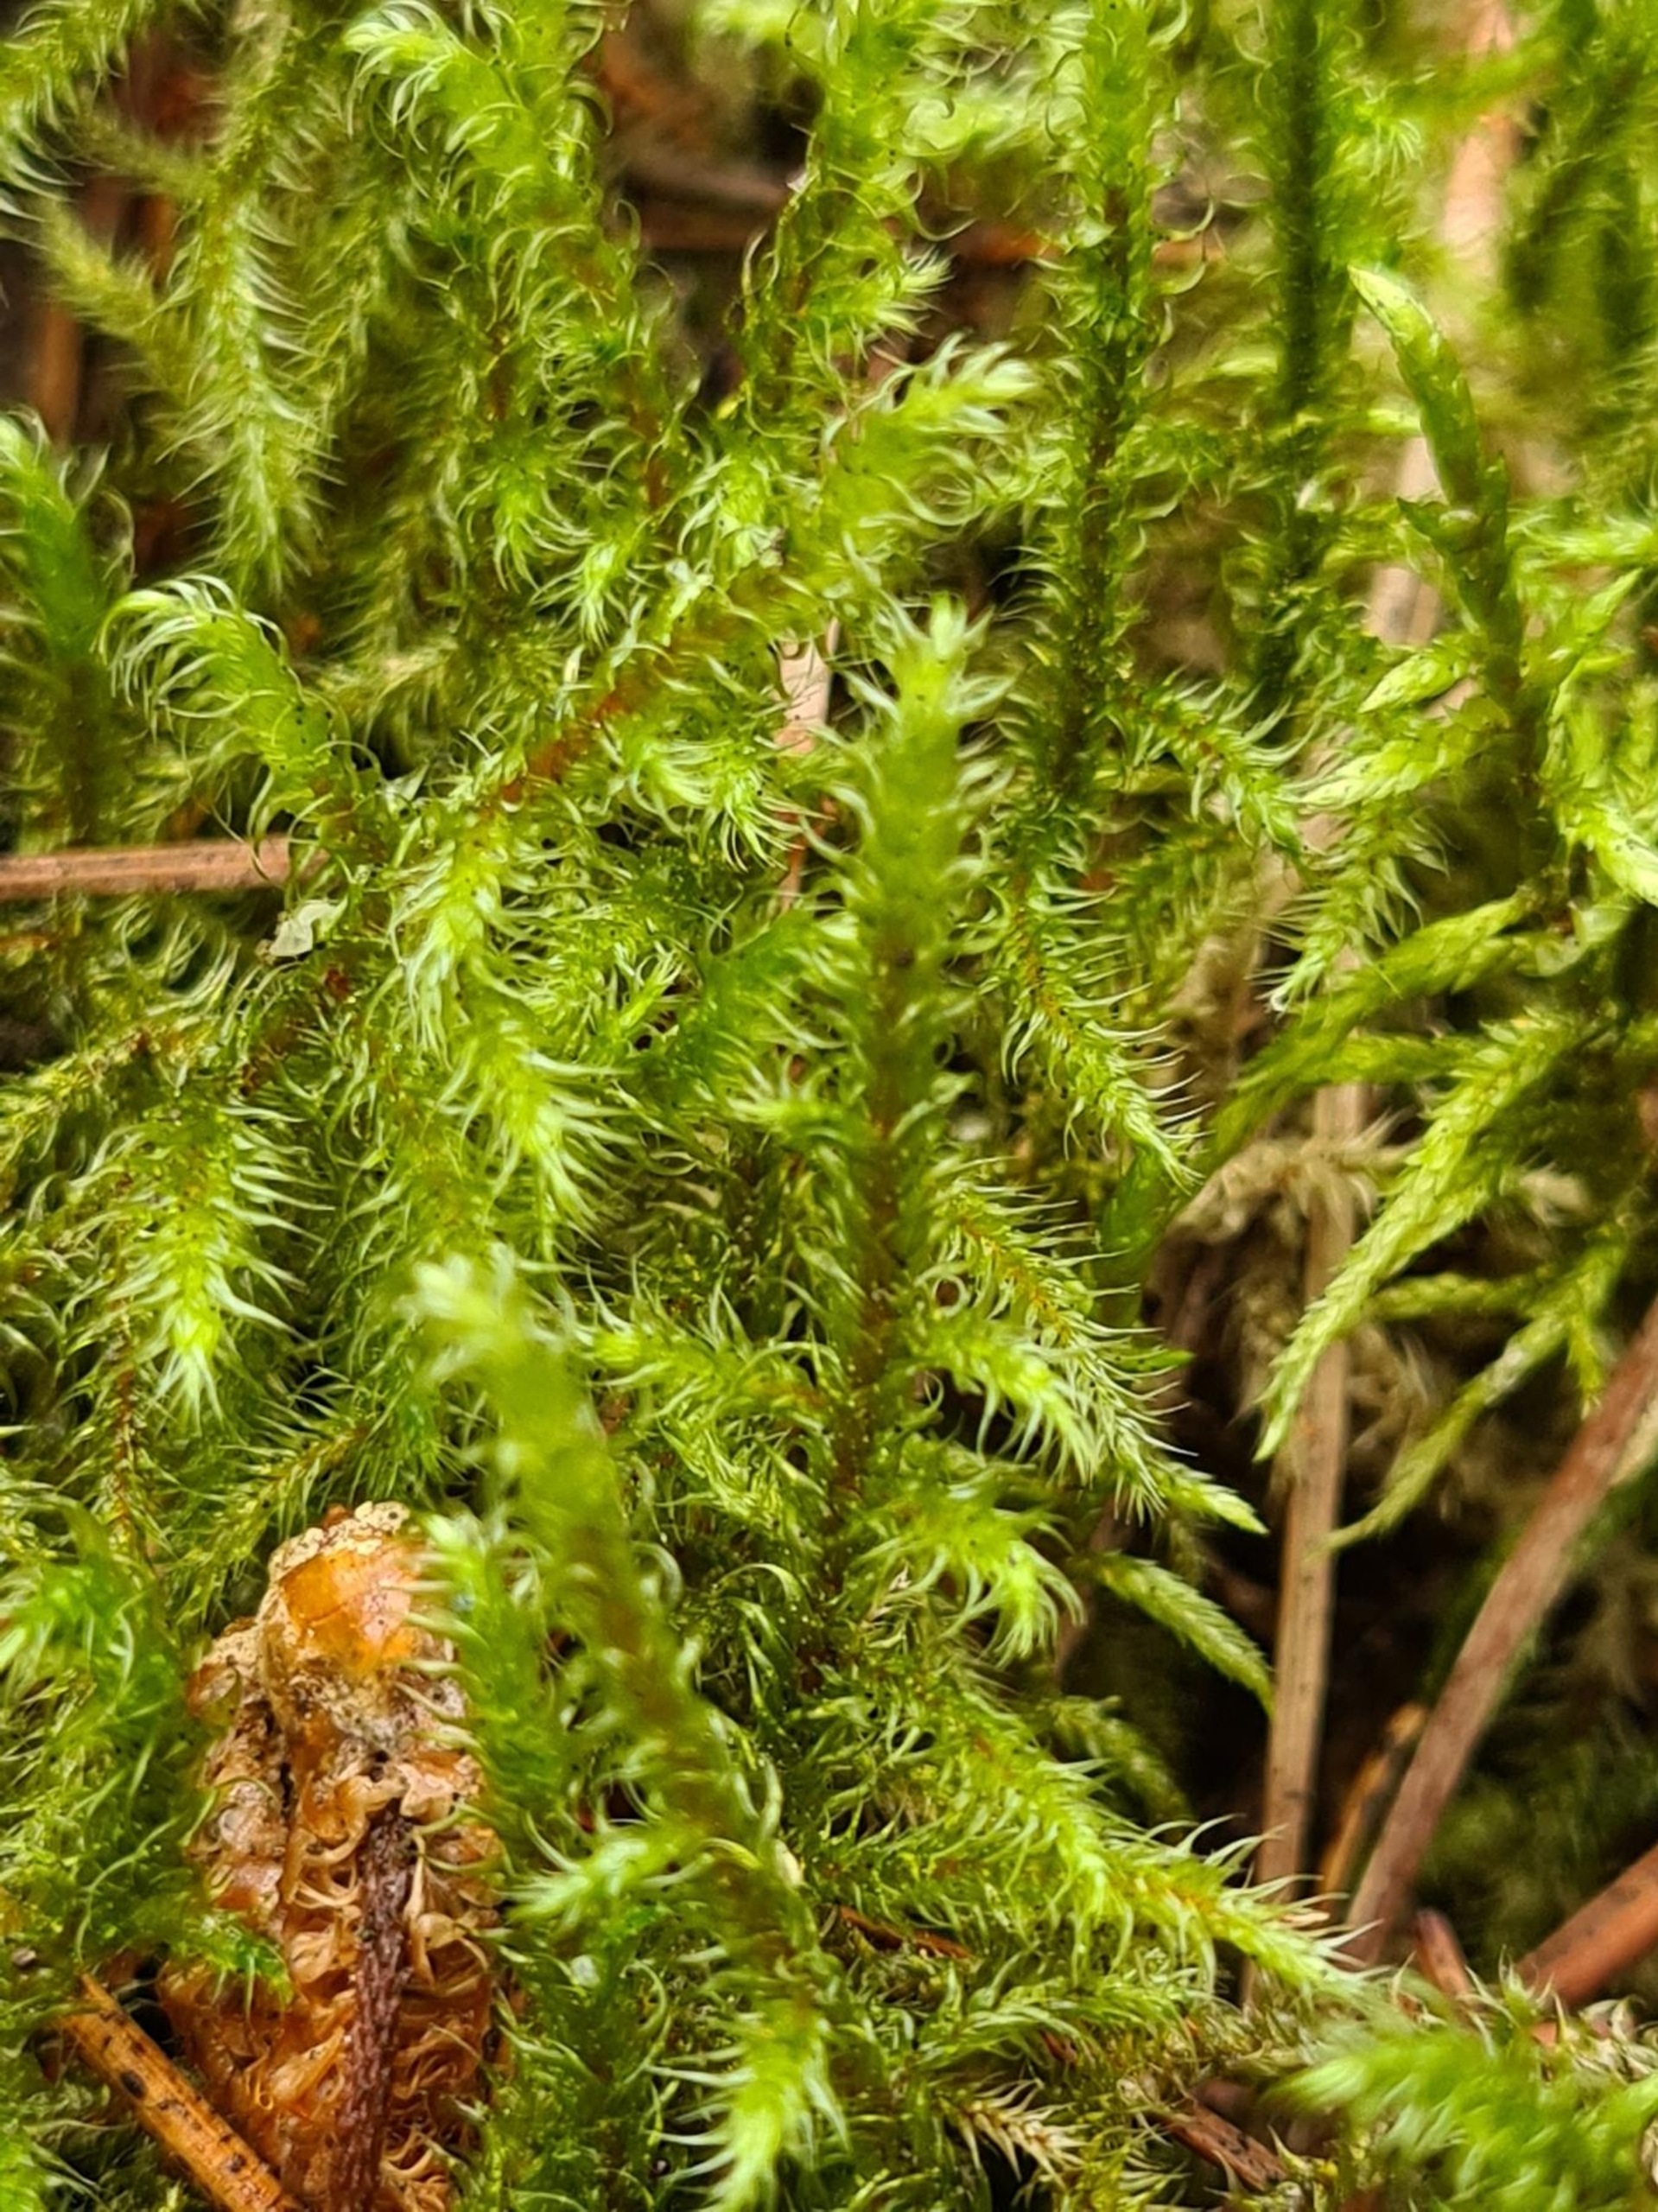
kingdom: Plantae
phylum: Bryophyta
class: Bryopsida
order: Hypnales
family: Hylocomiaceae
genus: Rhytidiadelphus
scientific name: Rhytidiadelphus loreus
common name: Ulvefod-kransemos
